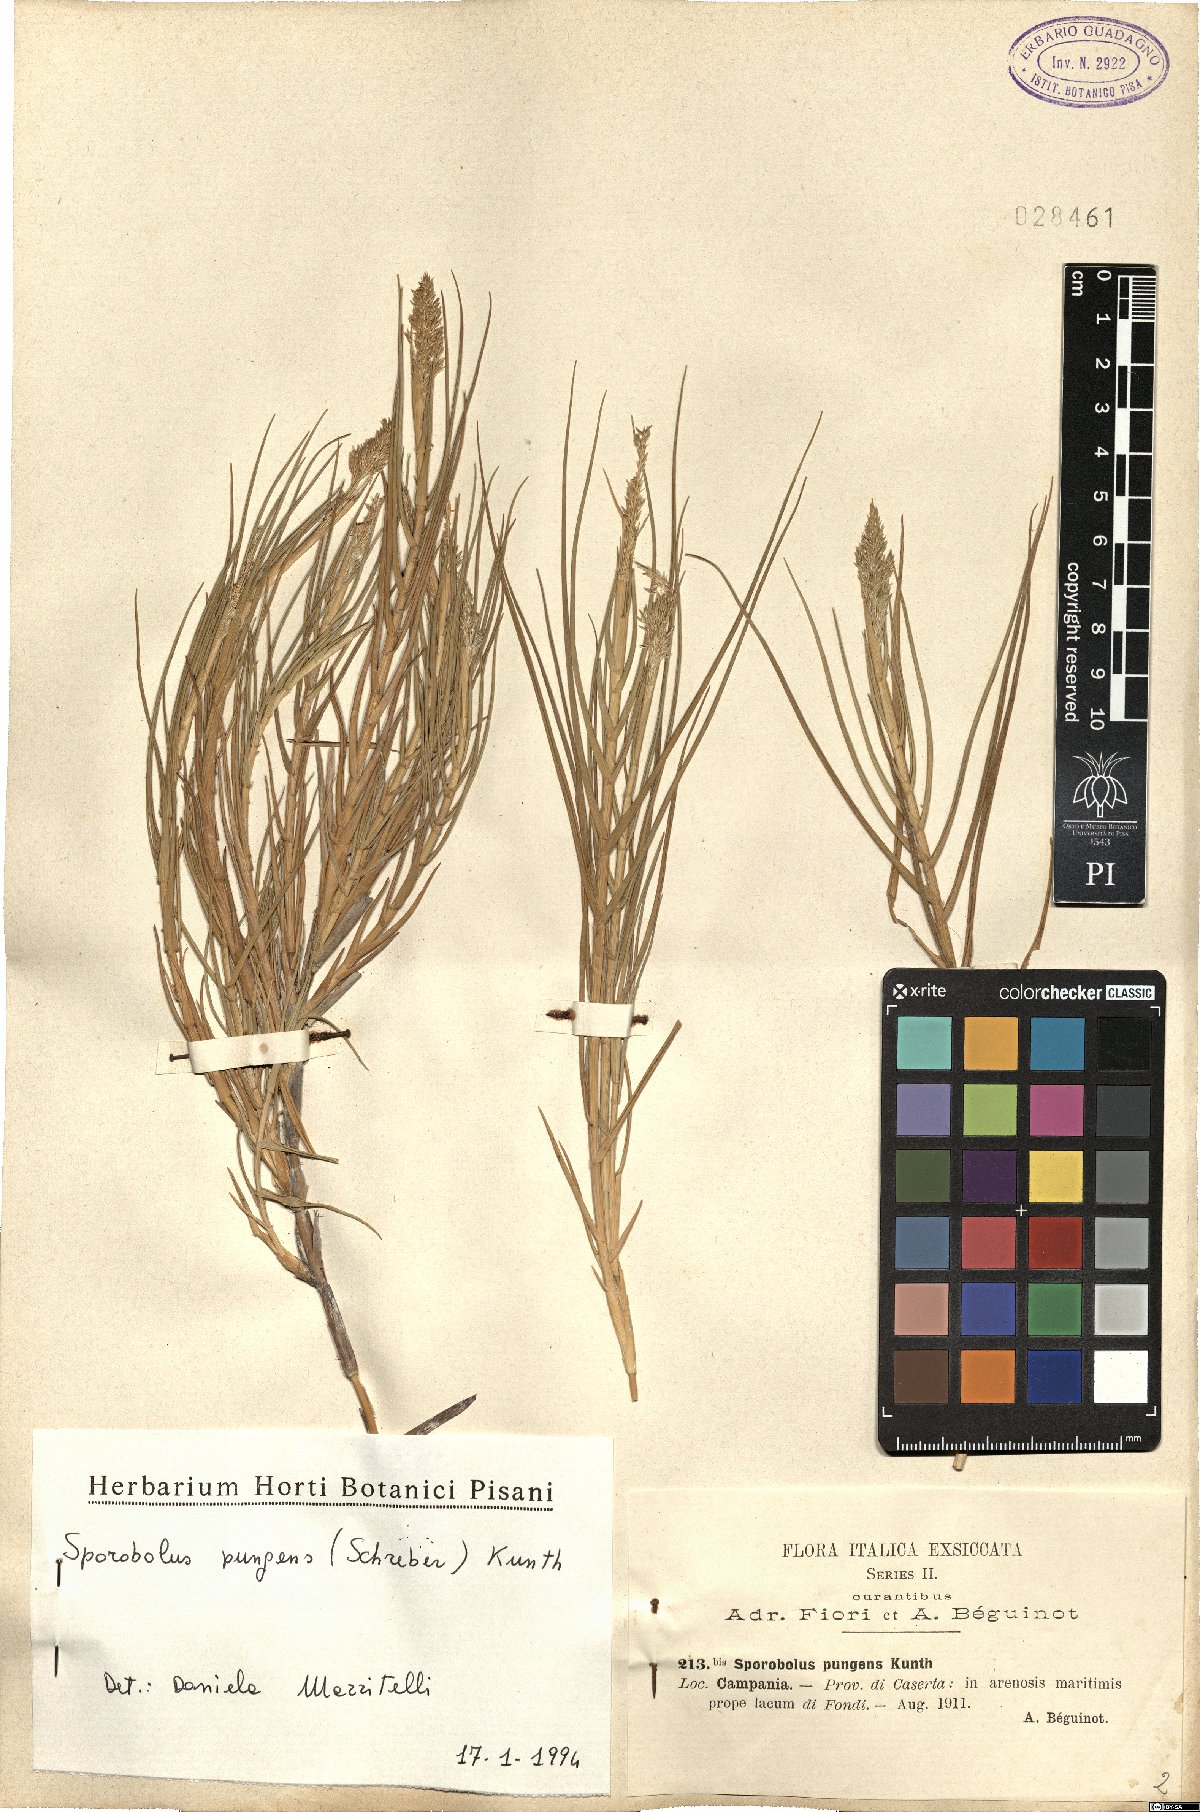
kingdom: Plantae
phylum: Tracheophyta
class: Liliopsida
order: Poales
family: Poaceae
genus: Sporobolus
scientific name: Sporobolus pungens
